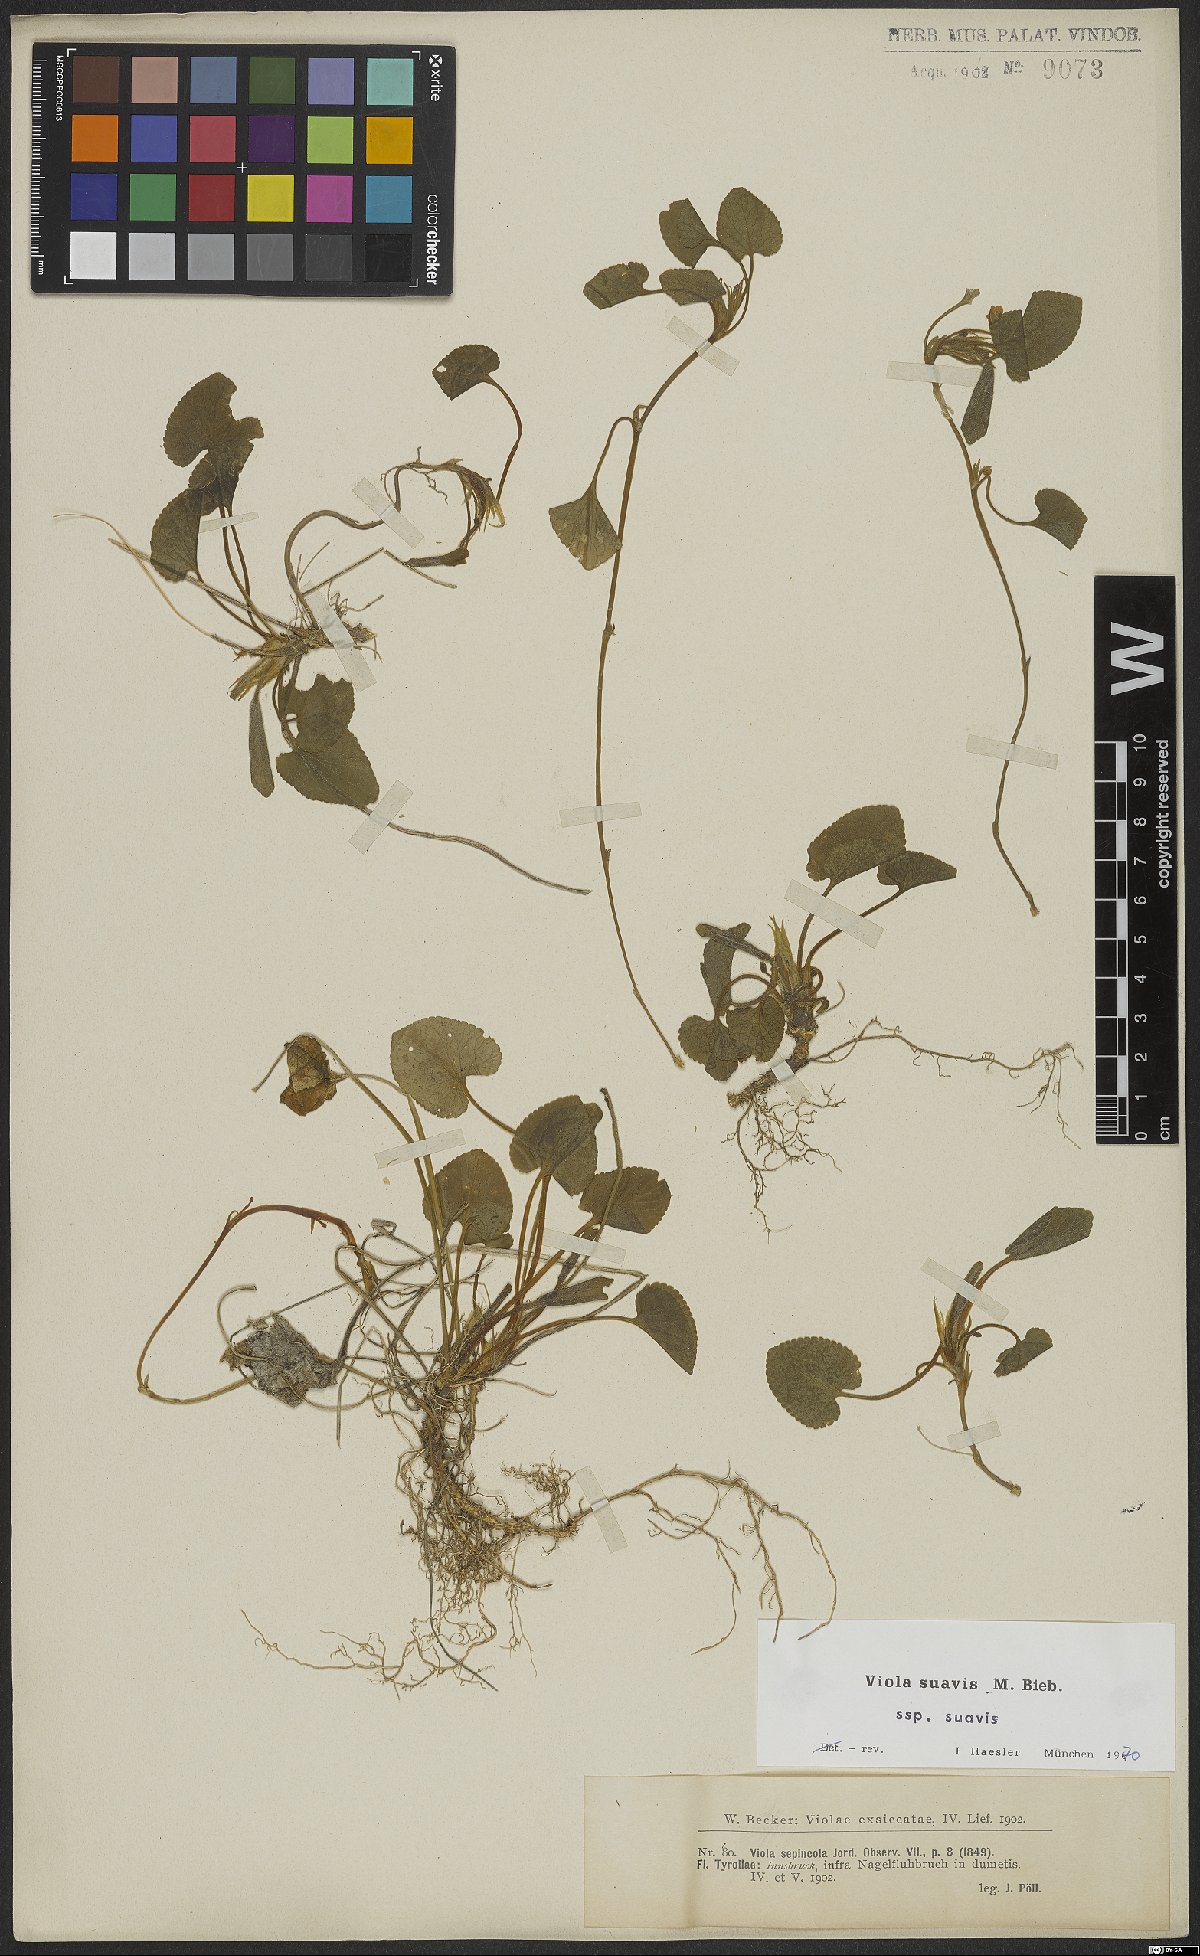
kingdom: Plantae
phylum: Tracheophyta
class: Magnoliopsida
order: Malpighiales
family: Violaceae
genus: Viola
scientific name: Viola suavis
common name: Russian violet
